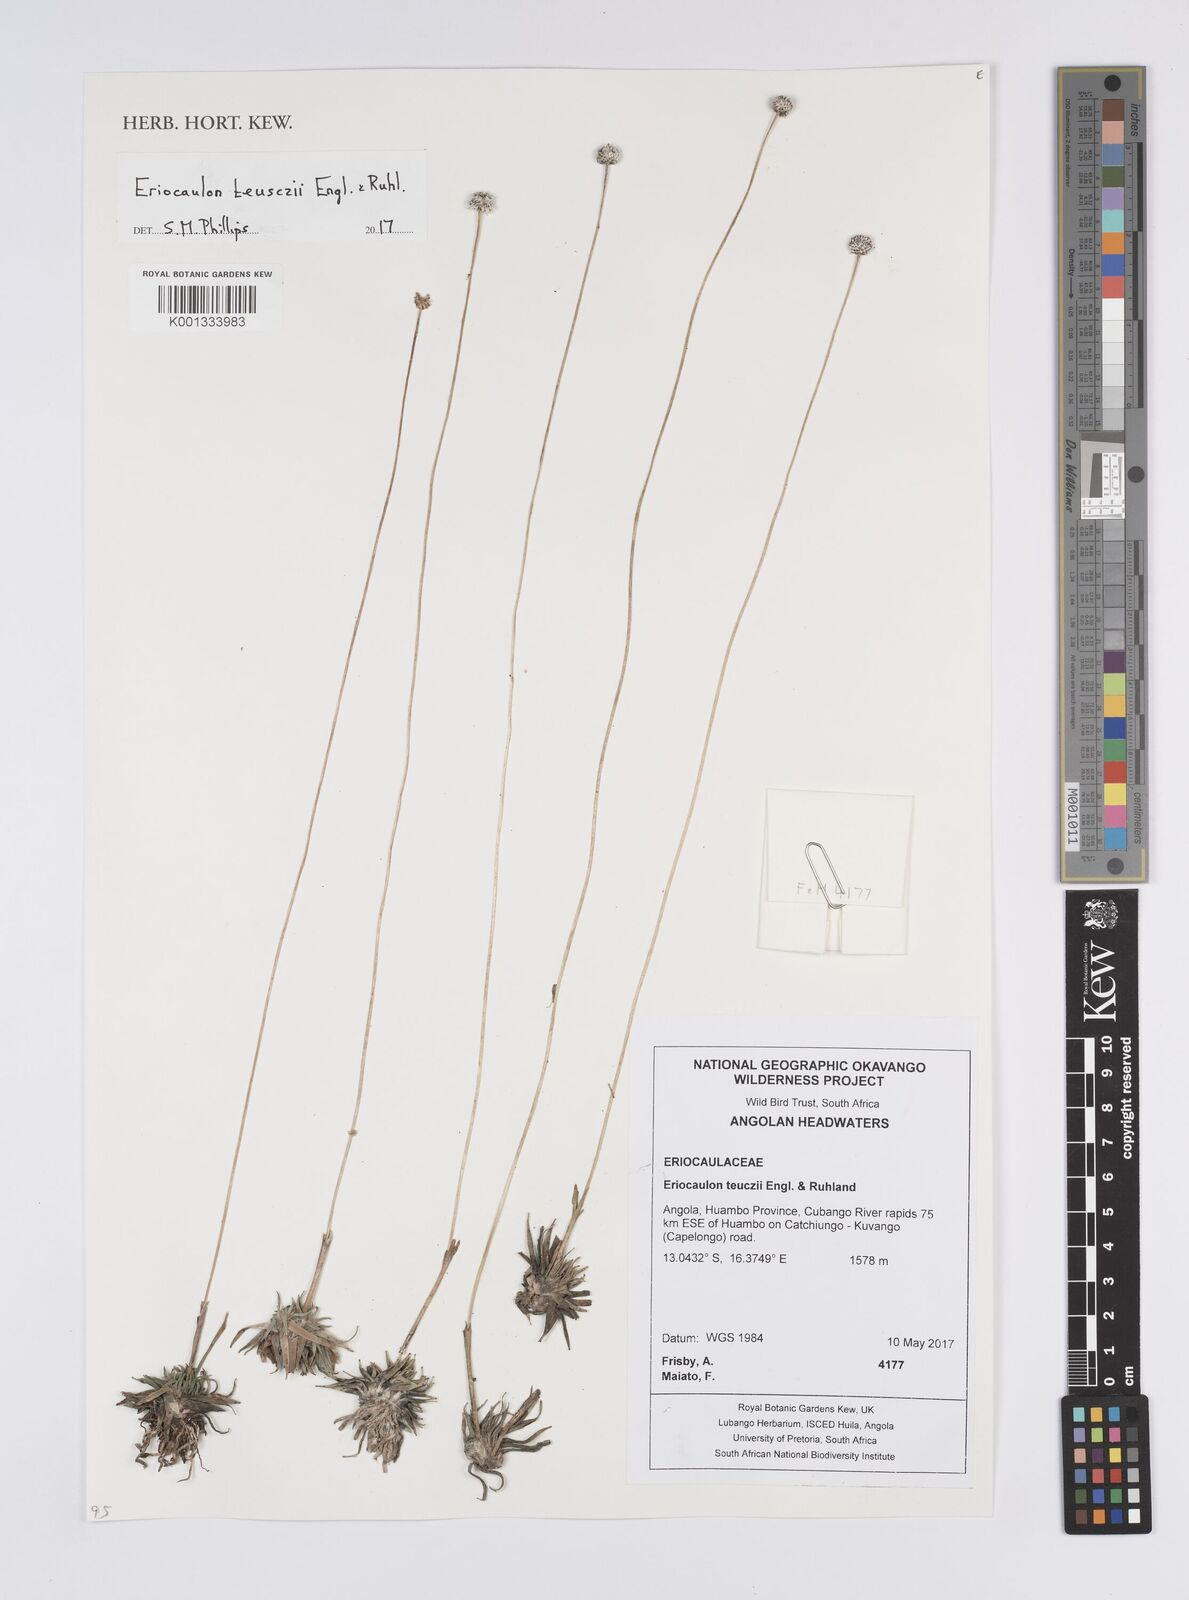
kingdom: Plantae
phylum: Tracheophyta
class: Liliopsida
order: Poales
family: Eriocaulaceae
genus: Eriocaulon
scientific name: Eriocaulon teusczii
